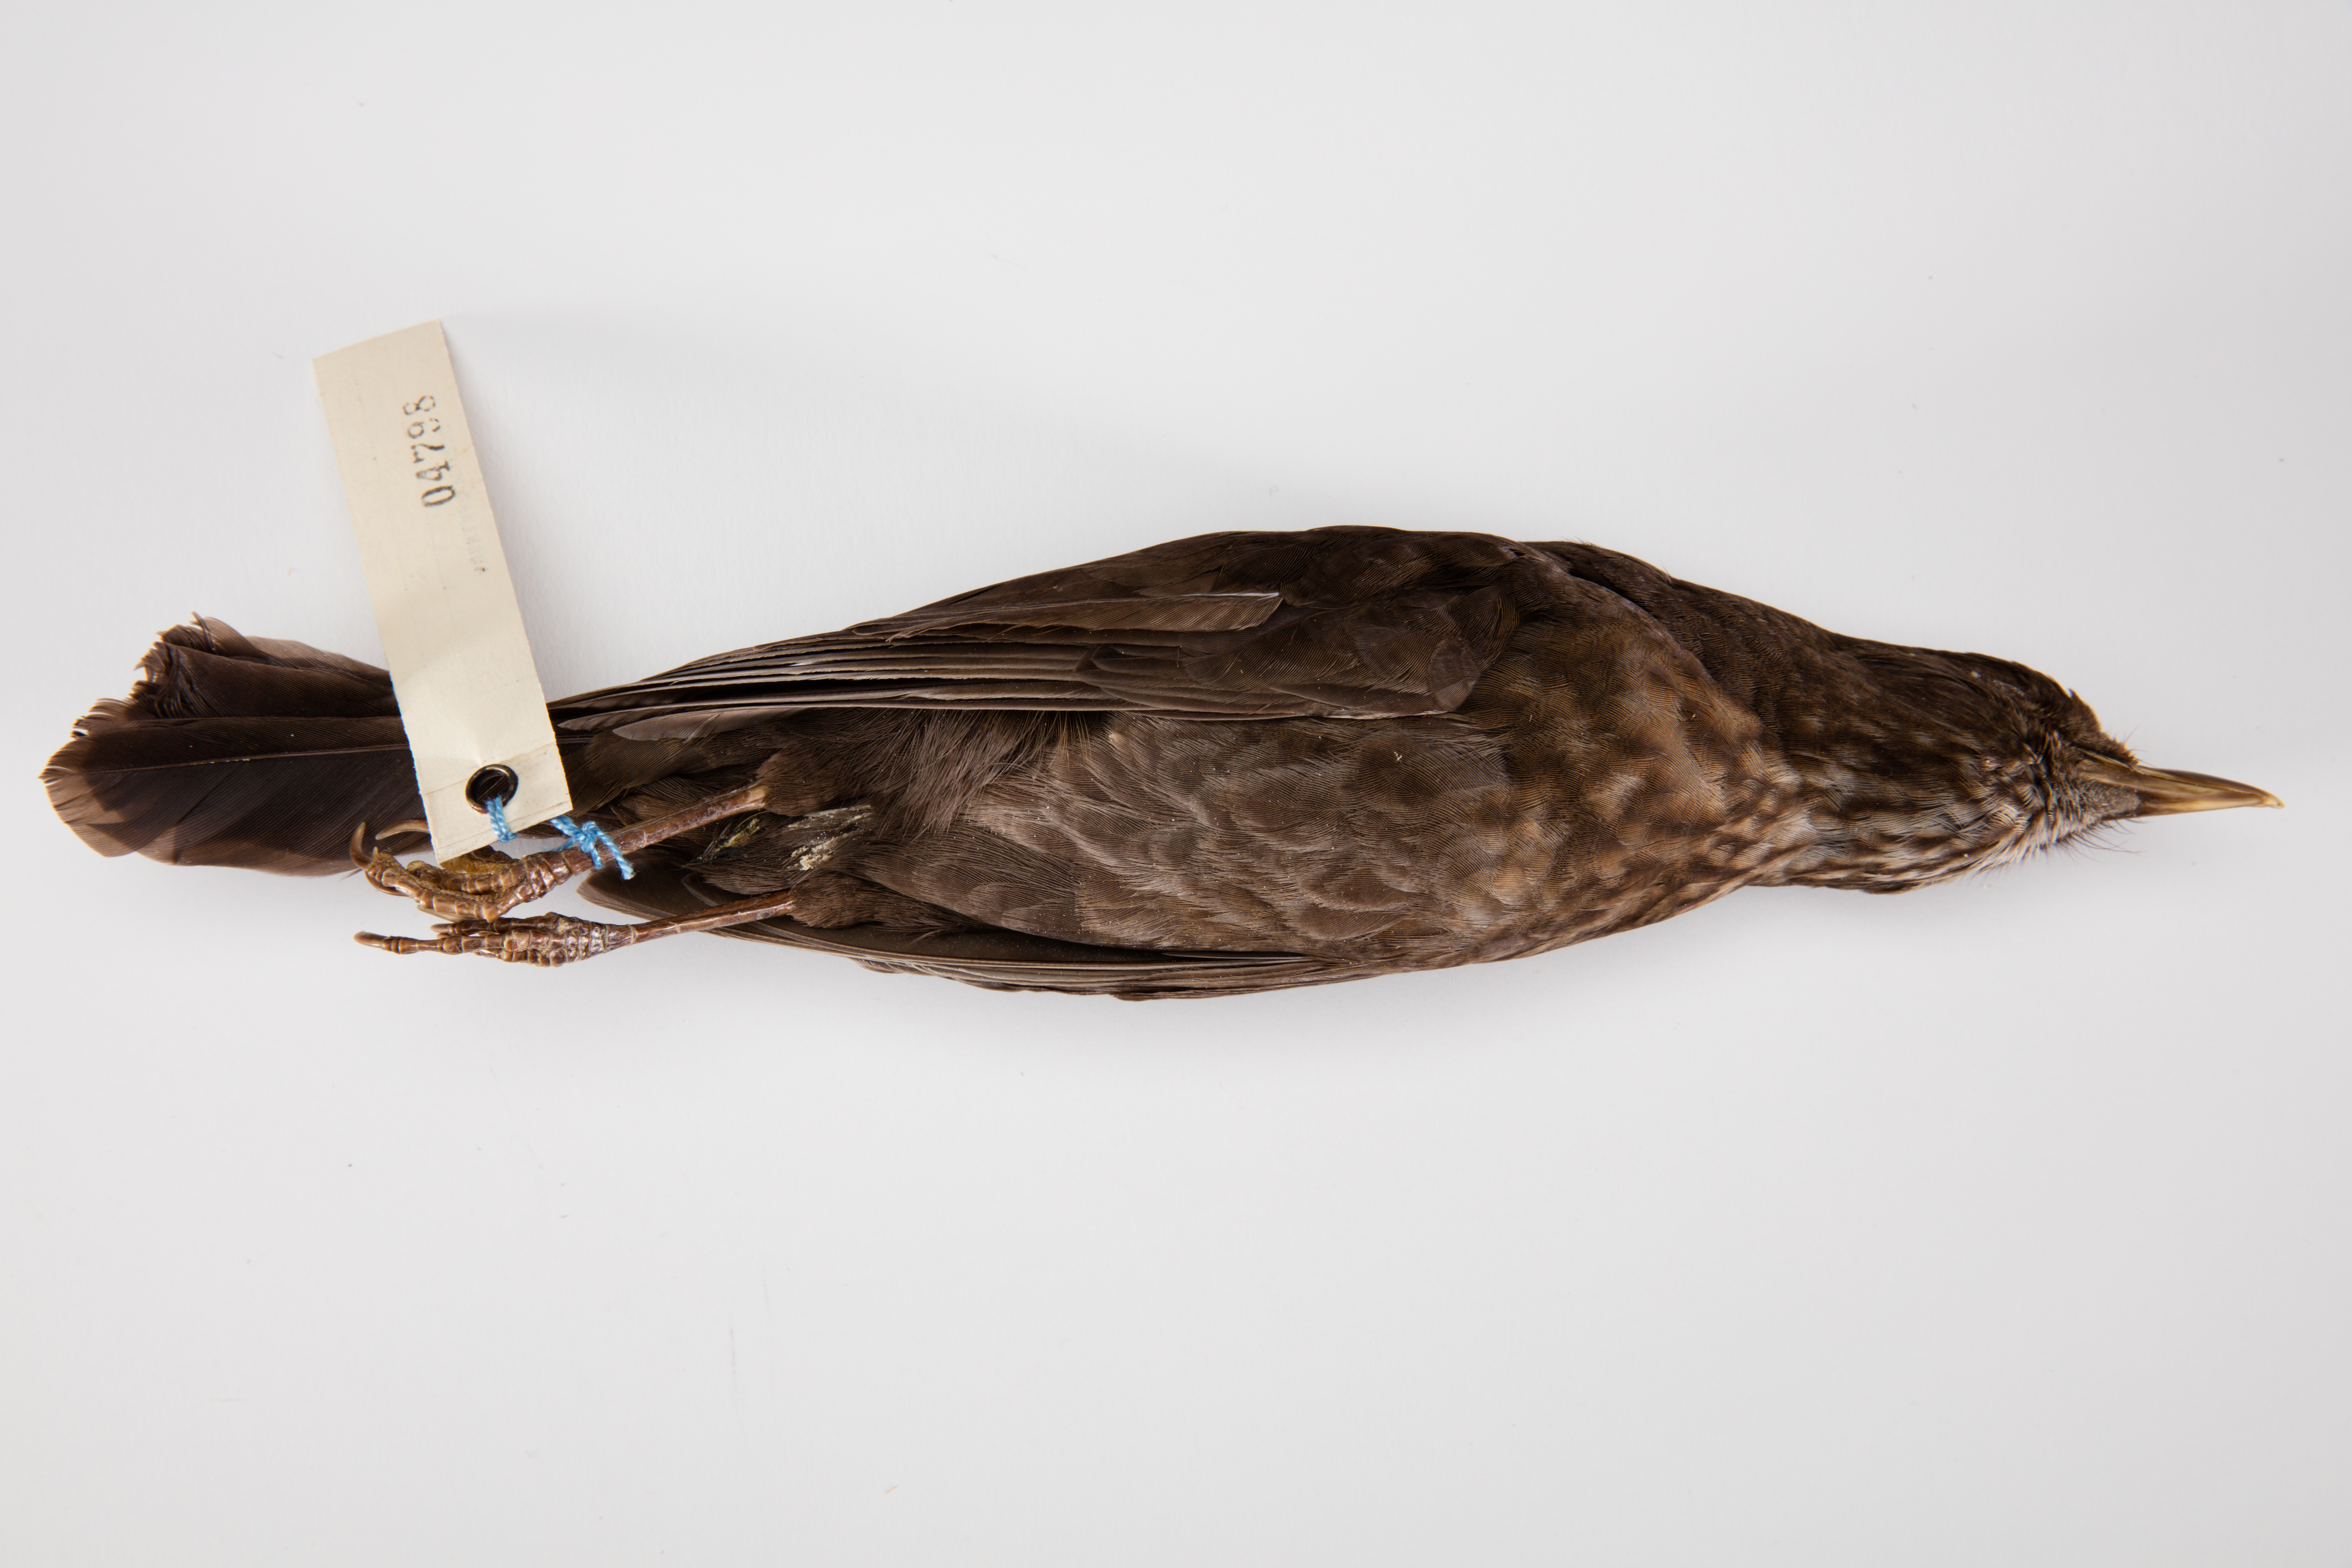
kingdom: Animalia
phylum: Chordata
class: Aves
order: Passeriformes
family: Turdidae
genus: Turdus
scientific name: Turdus merula
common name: Common blackbird
